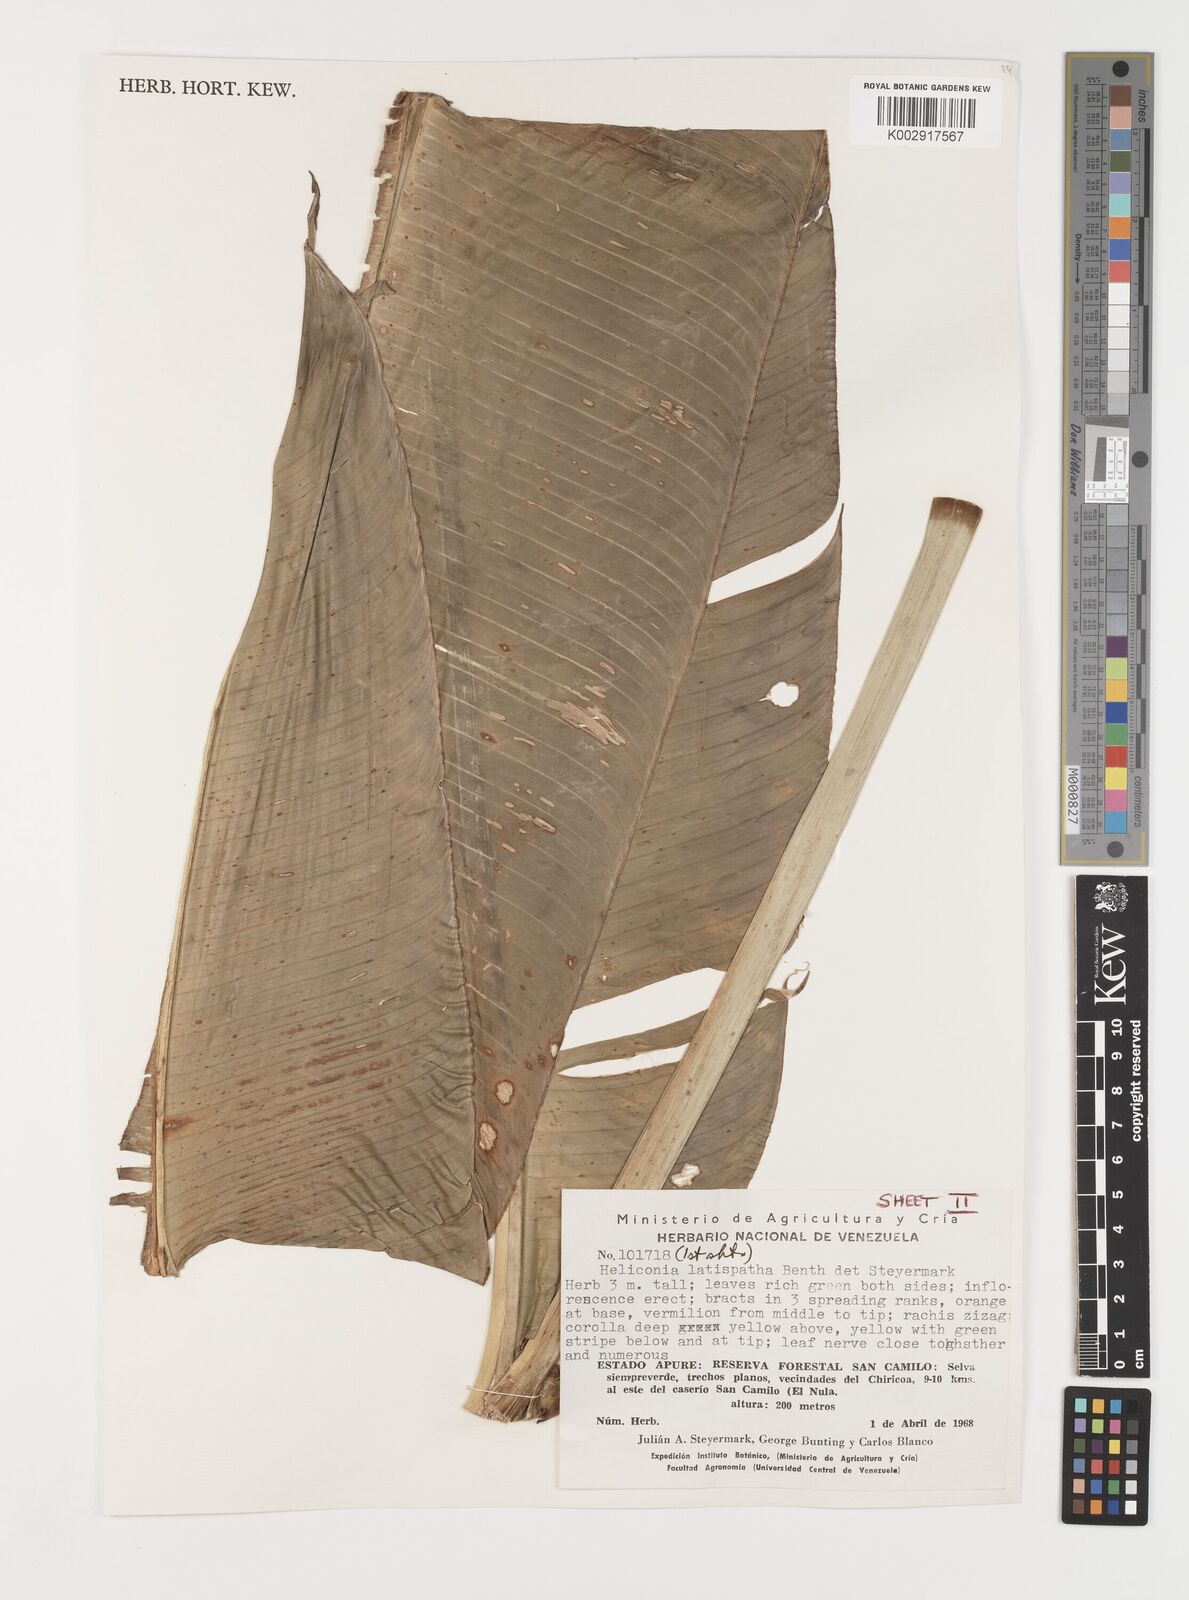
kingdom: Plantae
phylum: Tracheophyta
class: Liliopsida
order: Zingiberales
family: Heliconiaceae
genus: Heliconia
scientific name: Heliconia latispatha
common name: Expanded lobsterclaw
